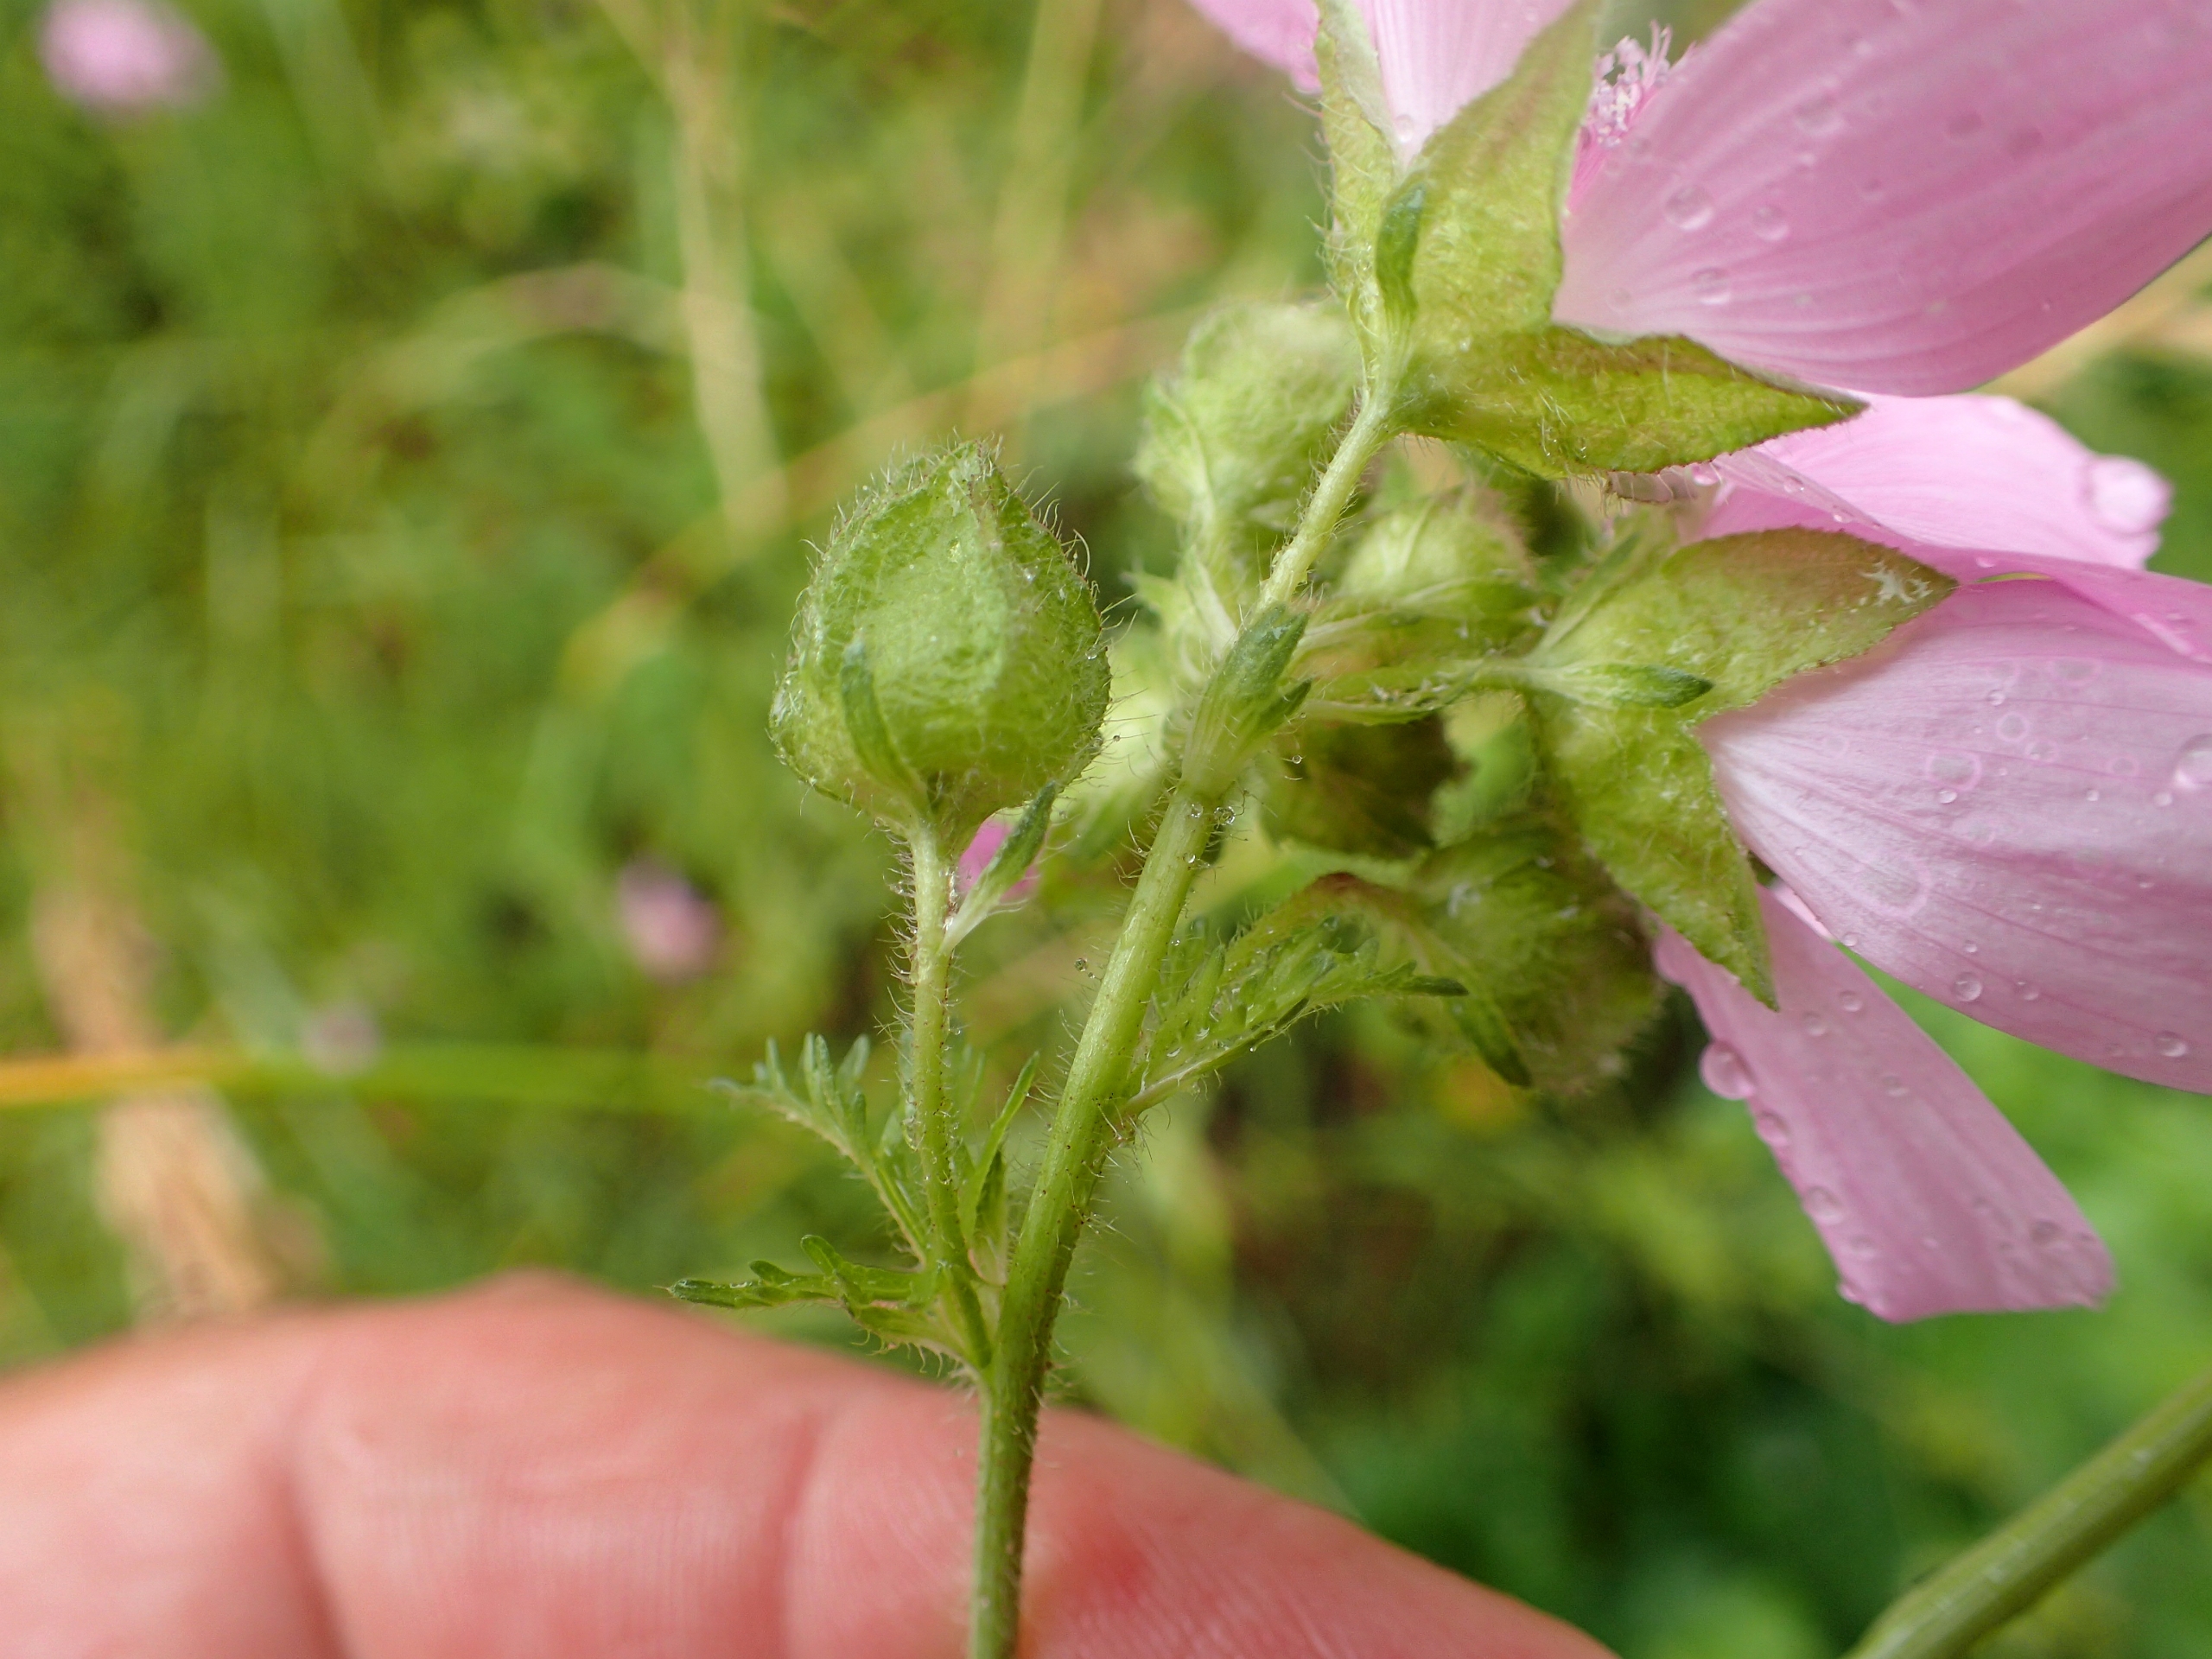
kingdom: Plantae
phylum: Tracheophyta
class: Magnoliopsida
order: Malvales
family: Malvaceae
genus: Malva
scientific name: Malva moschata
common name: Moskus-katost
